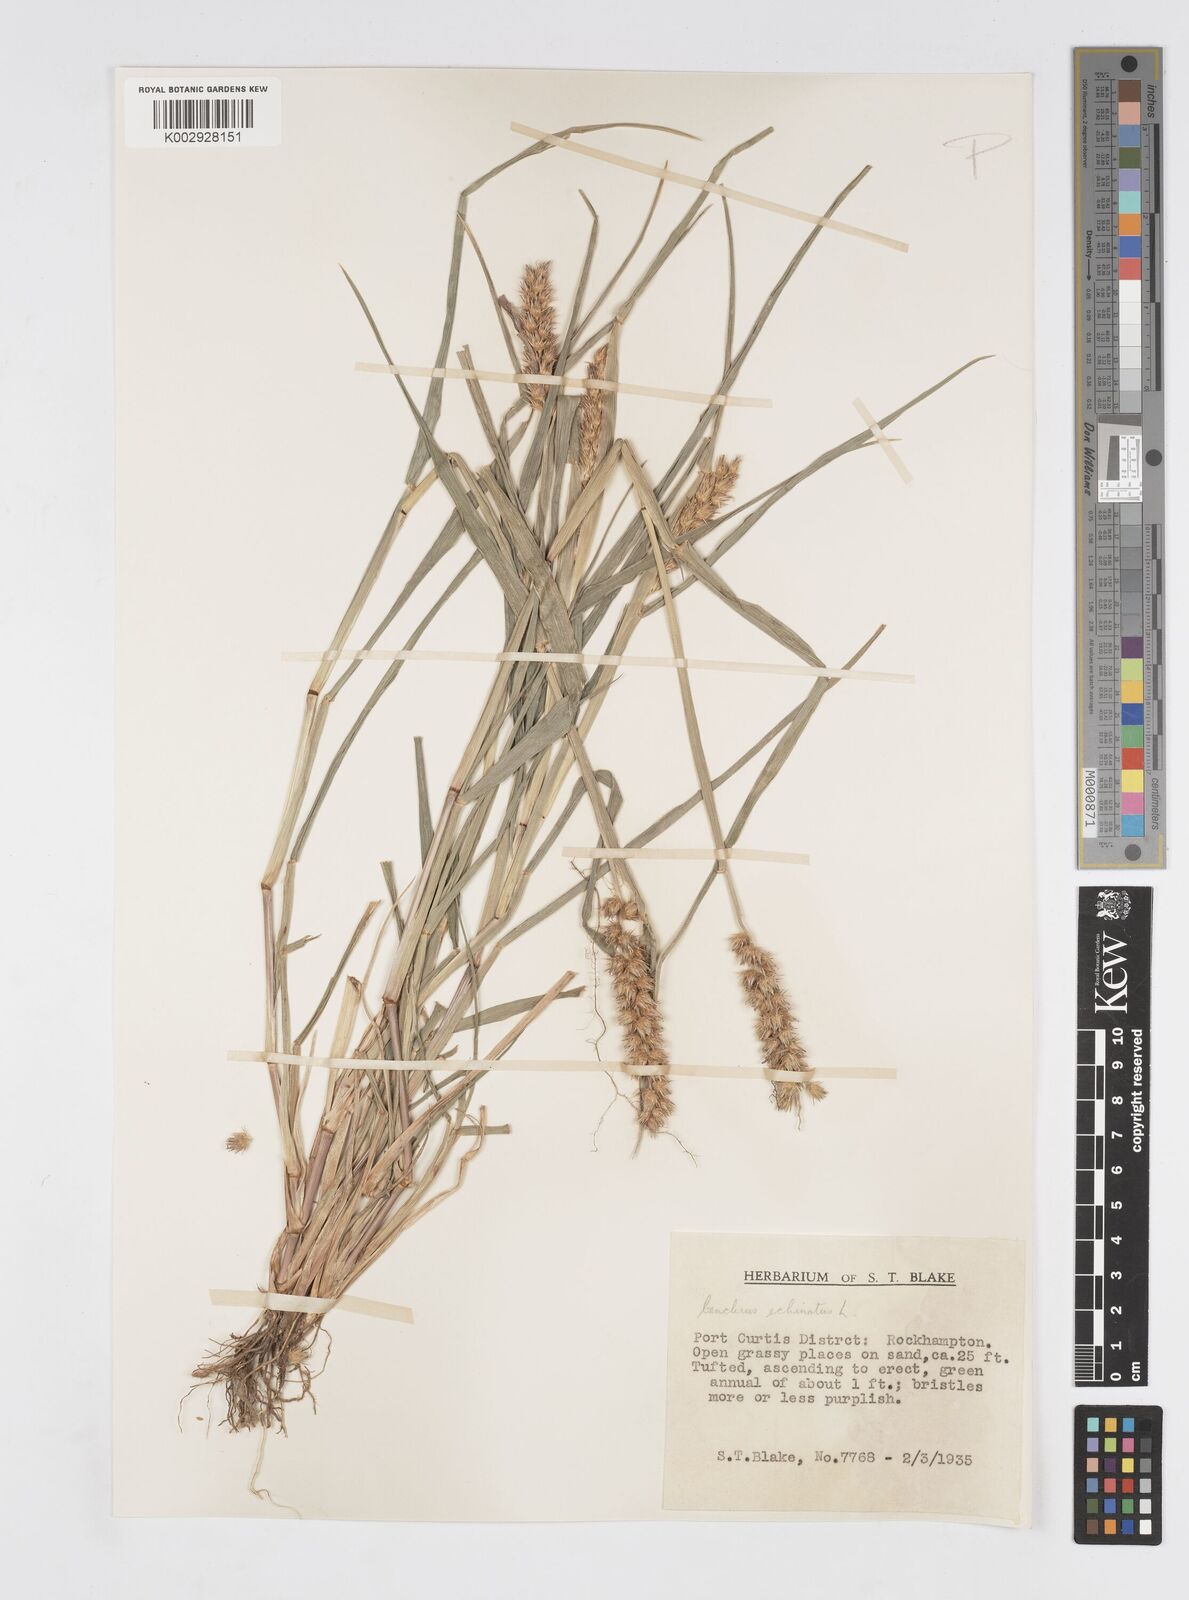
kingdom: Plantae
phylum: Tracheophyta
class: Liliopsida
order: Poales
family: Poaceae
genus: Cenchrus
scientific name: Cenchrus echinatus
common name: Southern sandbur
